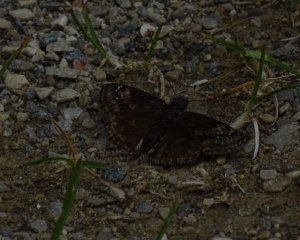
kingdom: Animalia
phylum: Arthropoda
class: Insecta
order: Lepidoptera
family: Hesperiidae
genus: Gesta
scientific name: Gesta
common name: Wild Indigo Duskywing
